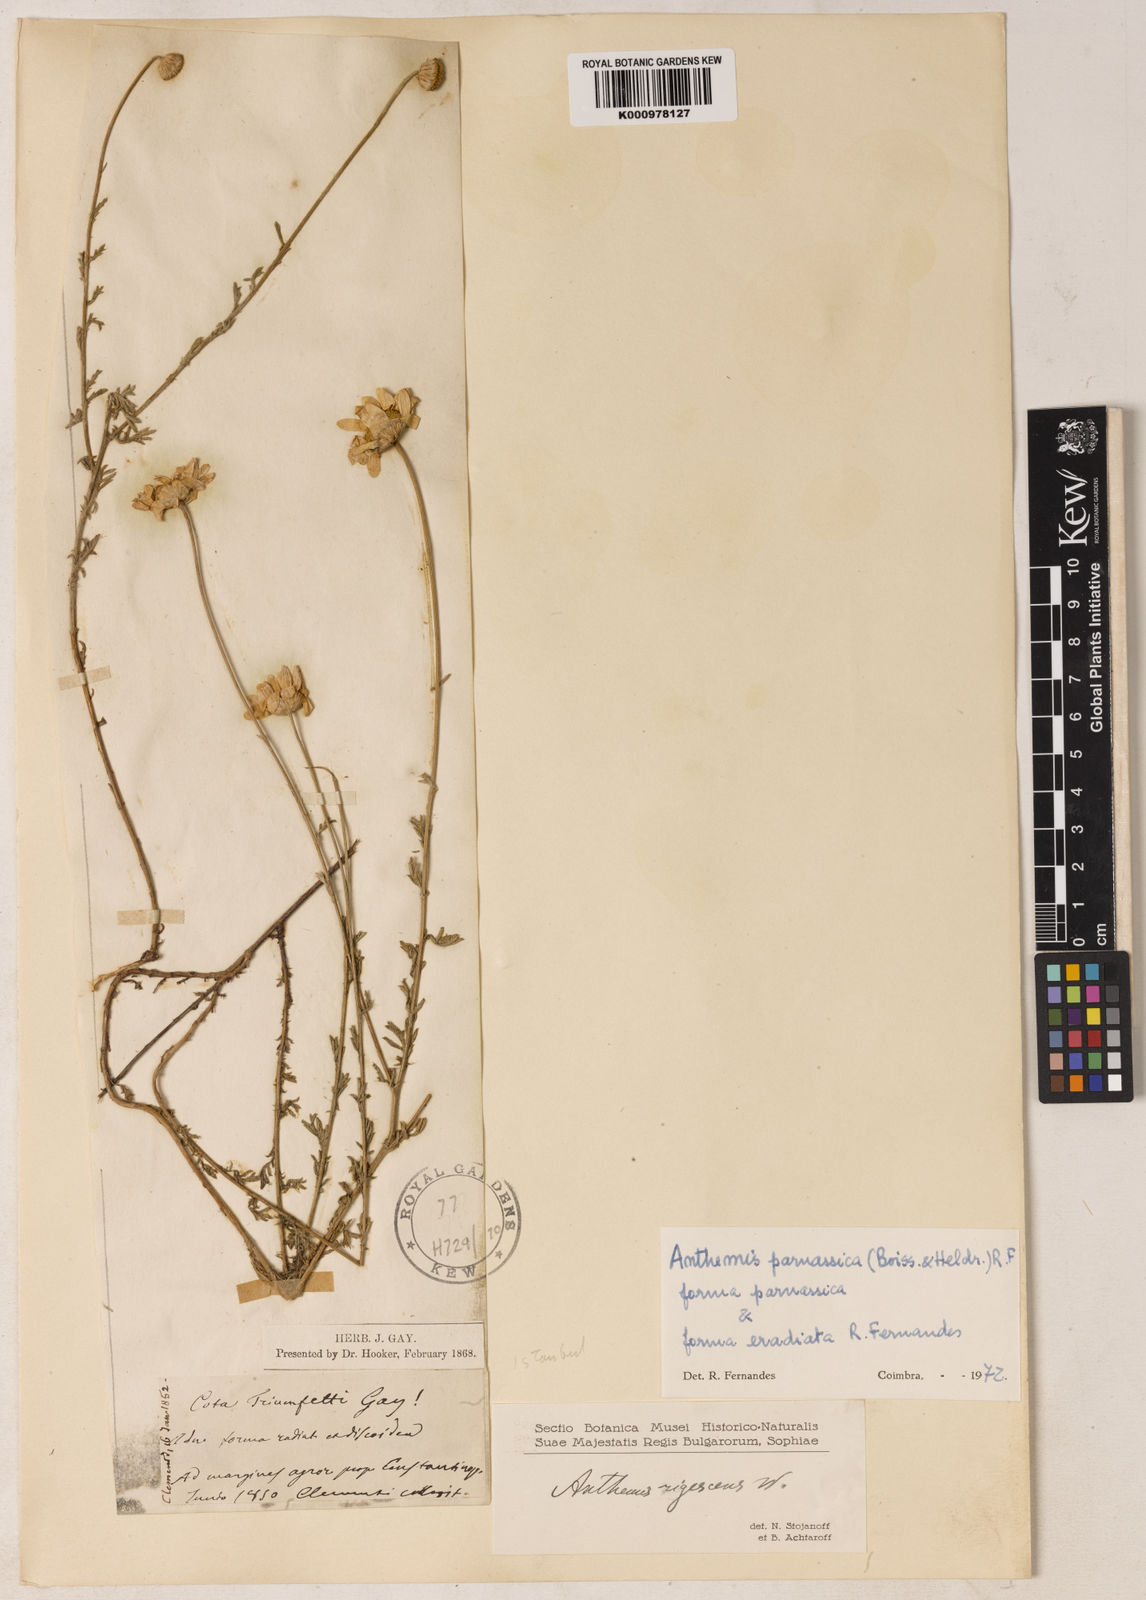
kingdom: Plantae
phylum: Tracheophyta
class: Magnoliopsida
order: Asterales
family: Asteraceae
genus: Cota
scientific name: Cota tinctoria
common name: Golden chamomile
